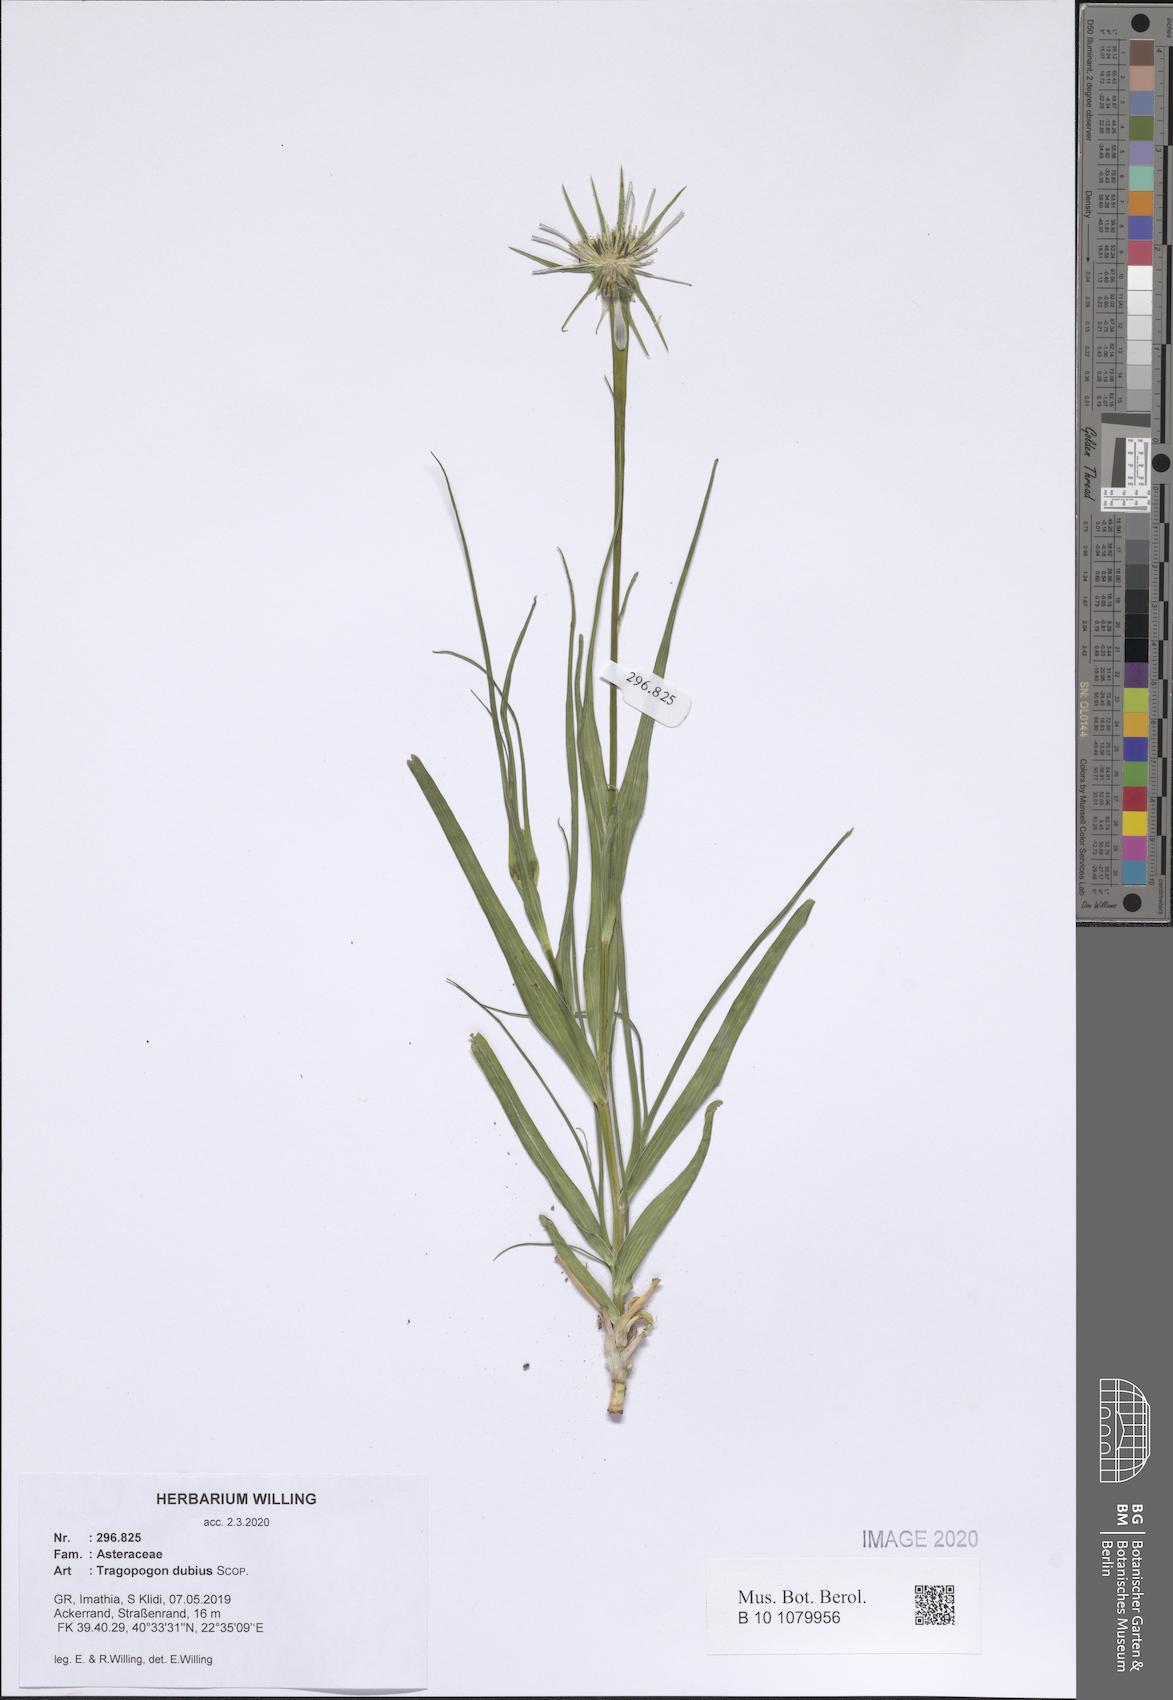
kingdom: Plantae
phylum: Tracheophyta
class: Magnoliopsida
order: Asterales
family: Asteraceae
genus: Tragopogon
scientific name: Tragopogon dubius
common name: Yellow salsify
